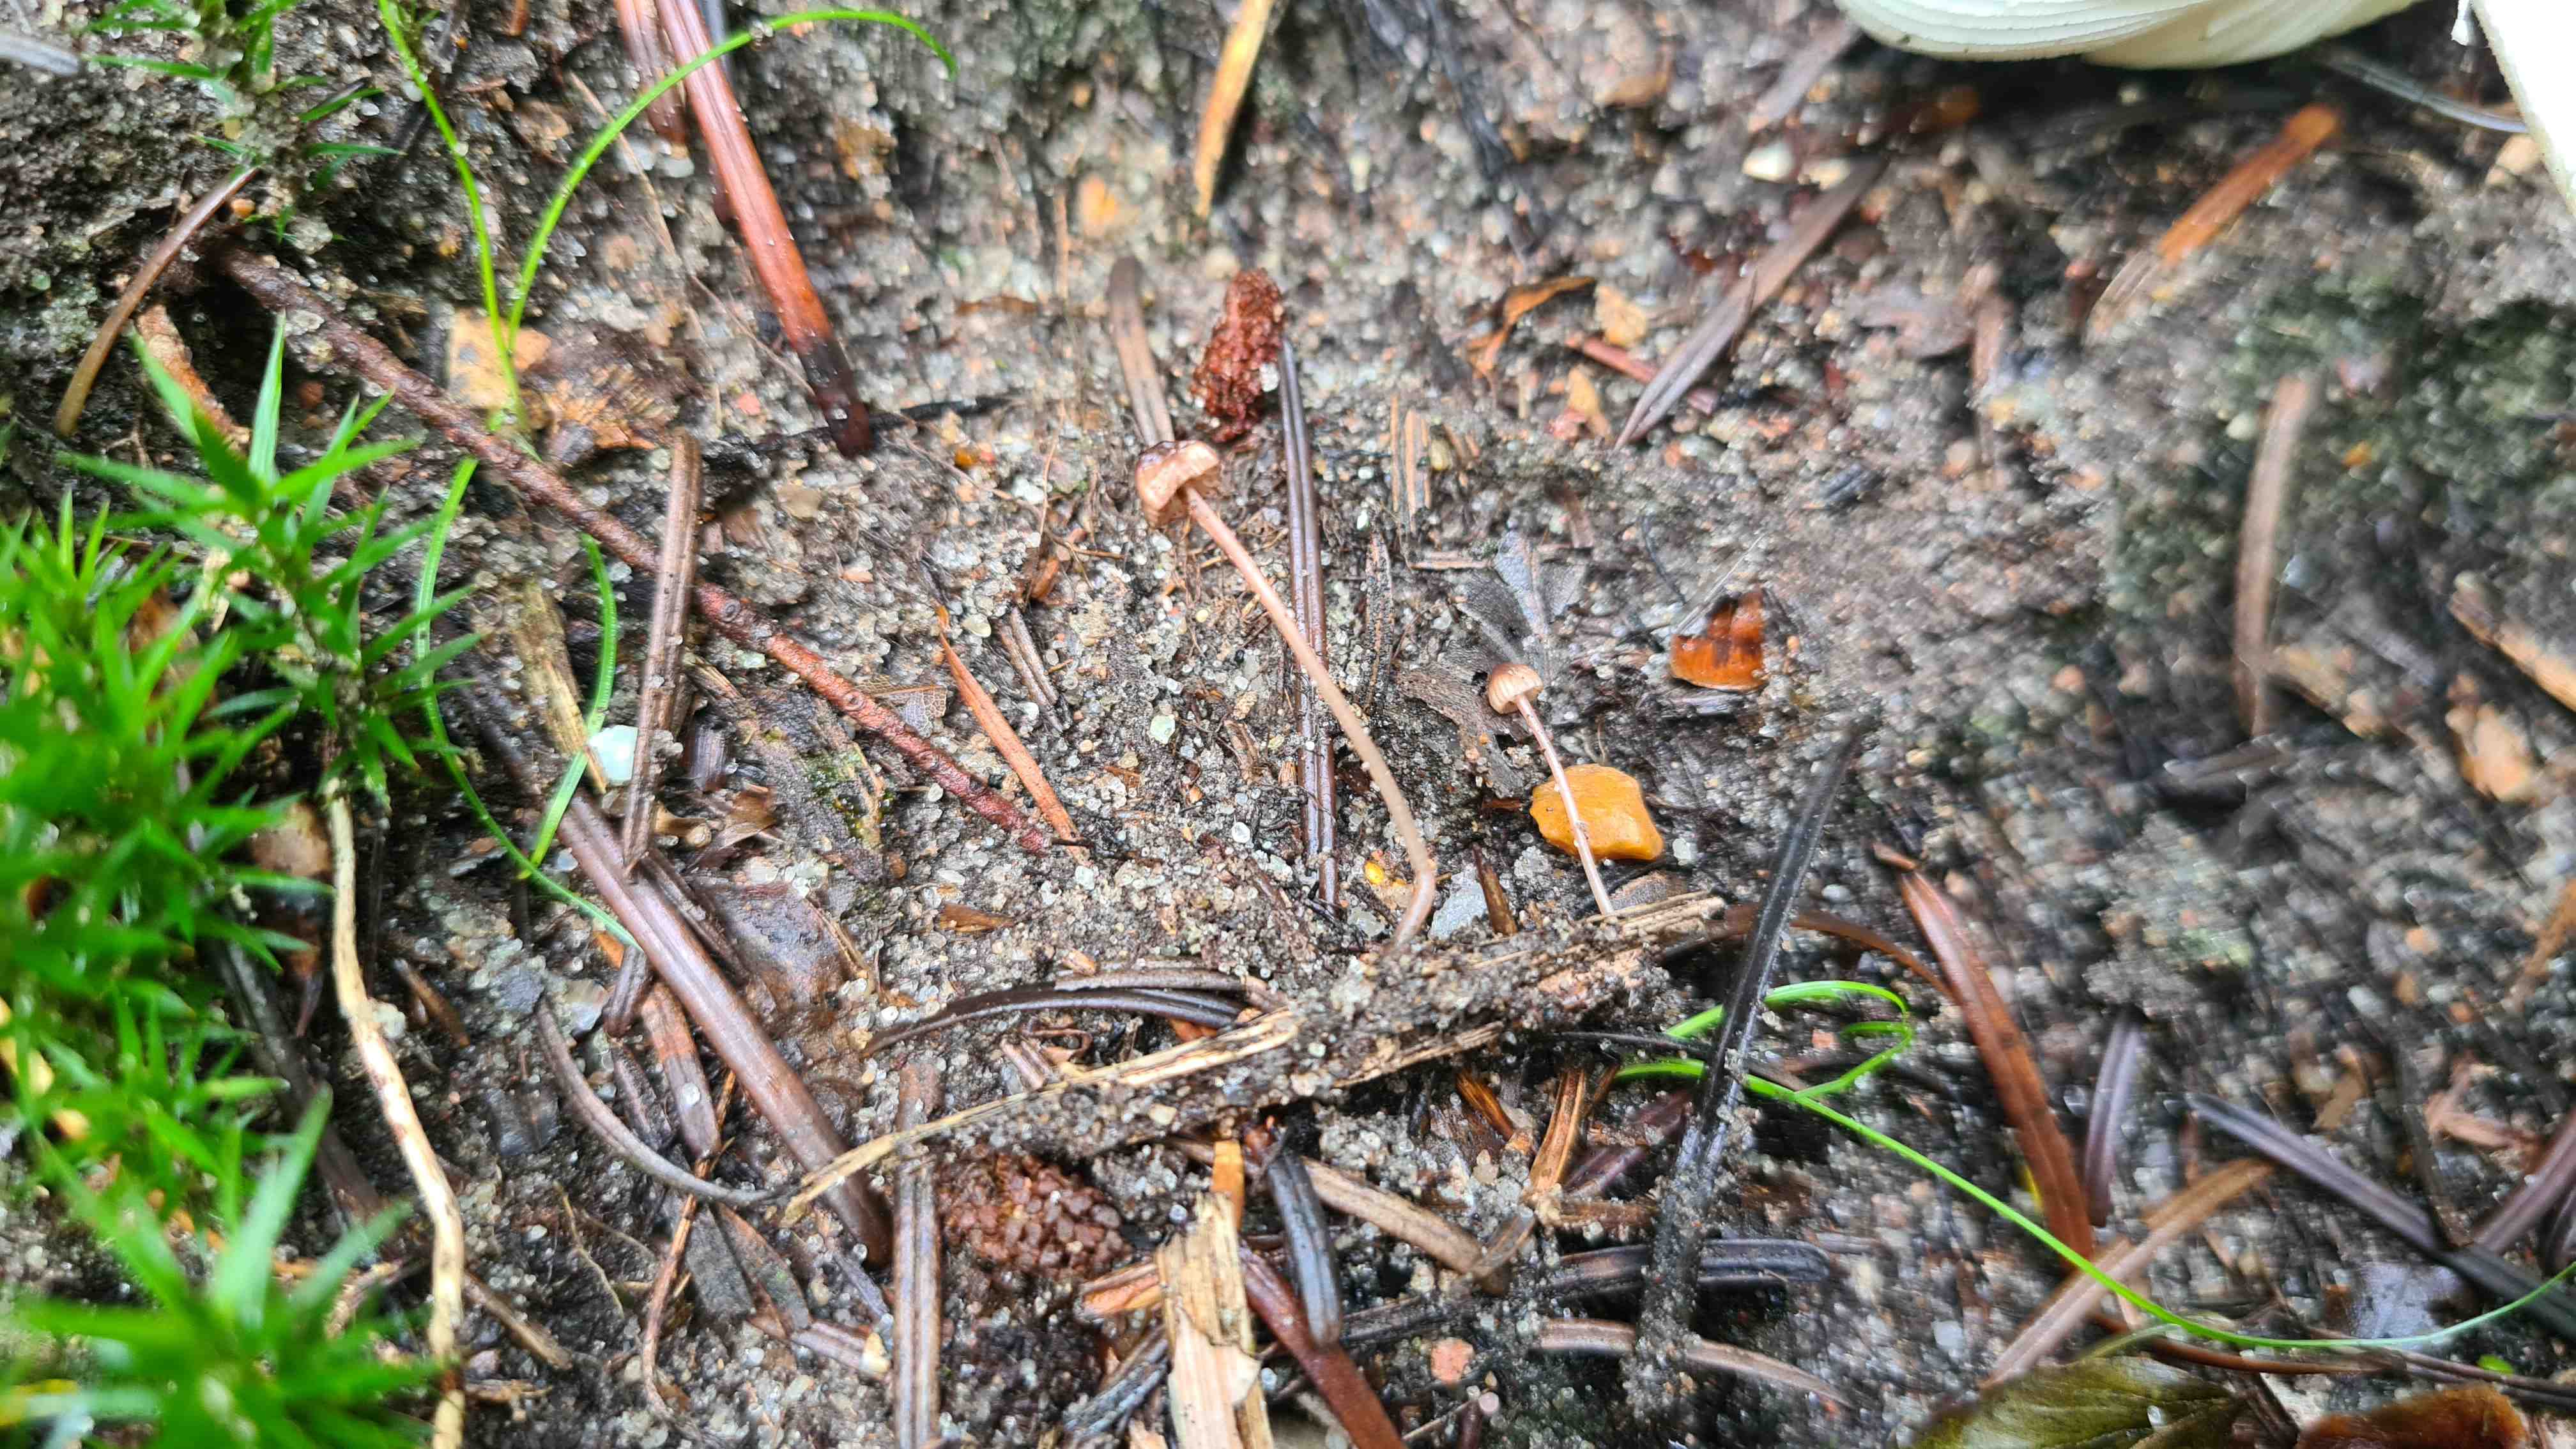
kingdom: Fungi
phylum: Basidiomycota
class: Agaricomycetes
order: Agaricales
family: Mycenaceae
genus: Mycena
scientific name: Mycena sanguinolenta
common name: rødmælket huesvamp
